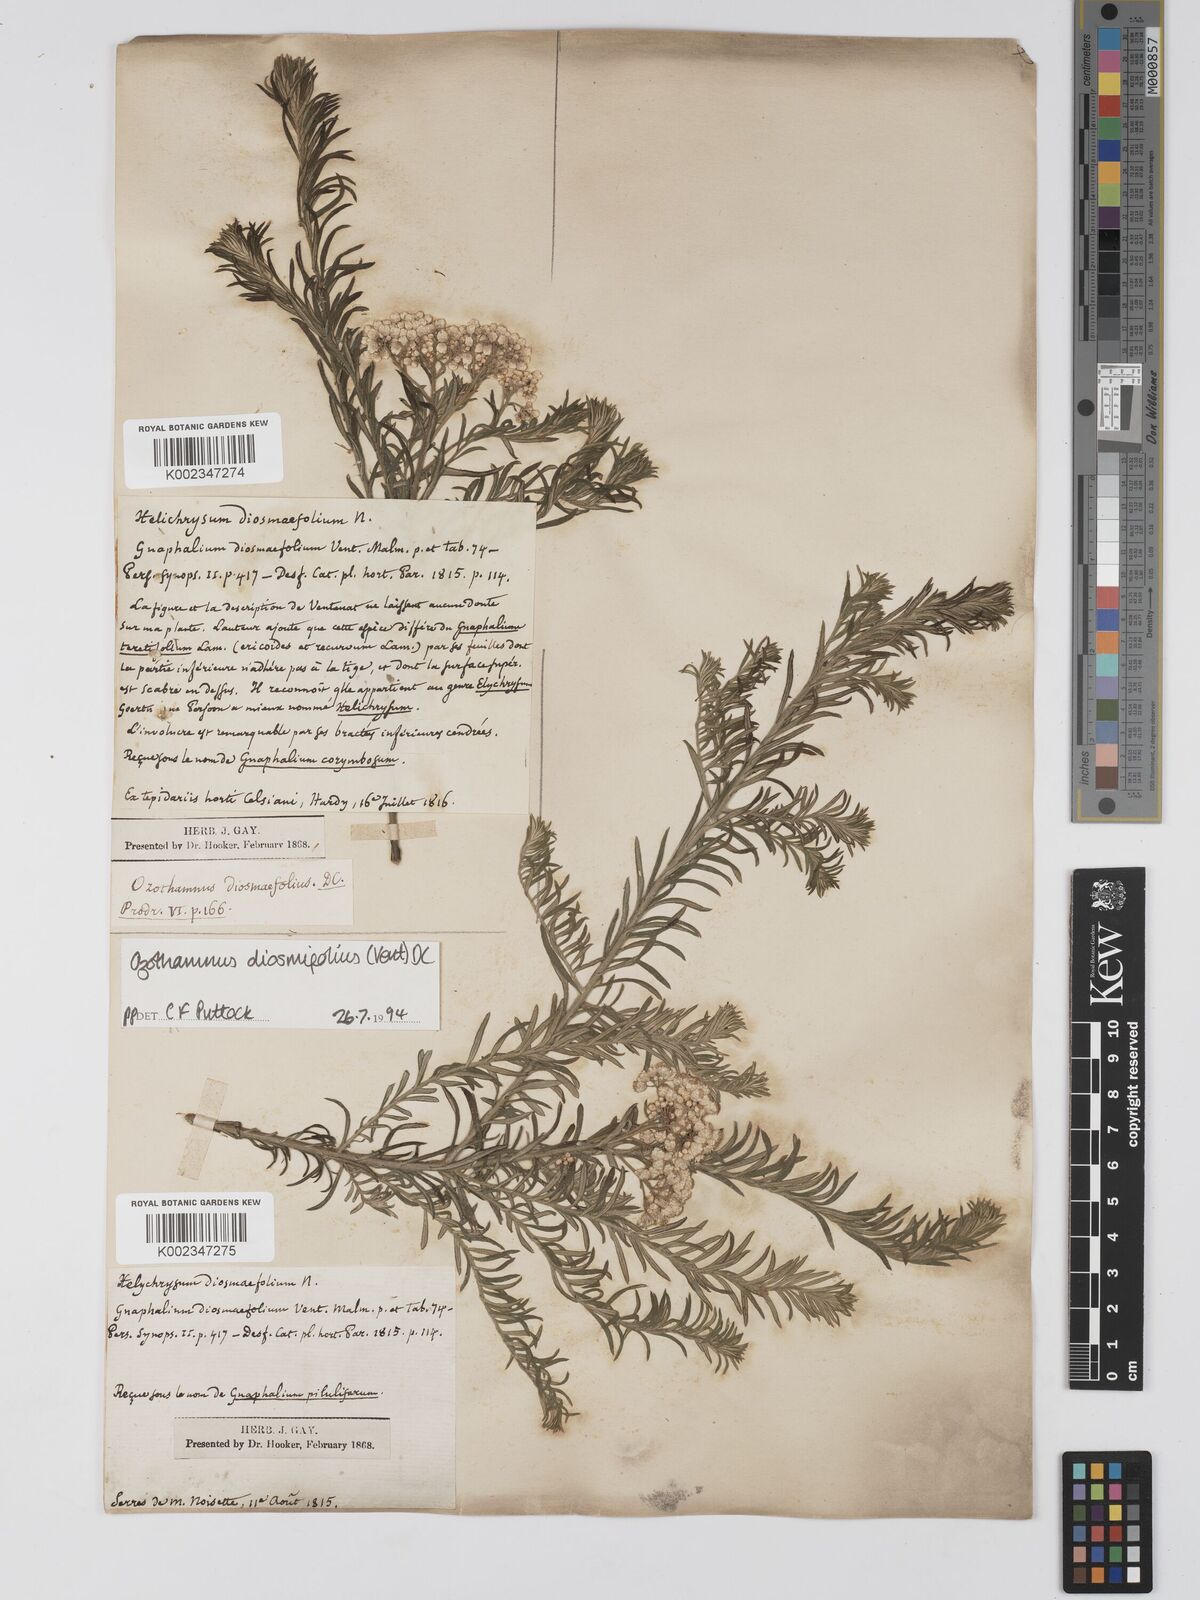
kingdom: Plantae
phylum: Tracheophyta
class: Magnoliopsida
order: Asterales
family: Asteraceae
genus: Ozothamnus
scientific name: Ozothamnus diosmifolius
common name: White-dogwood
